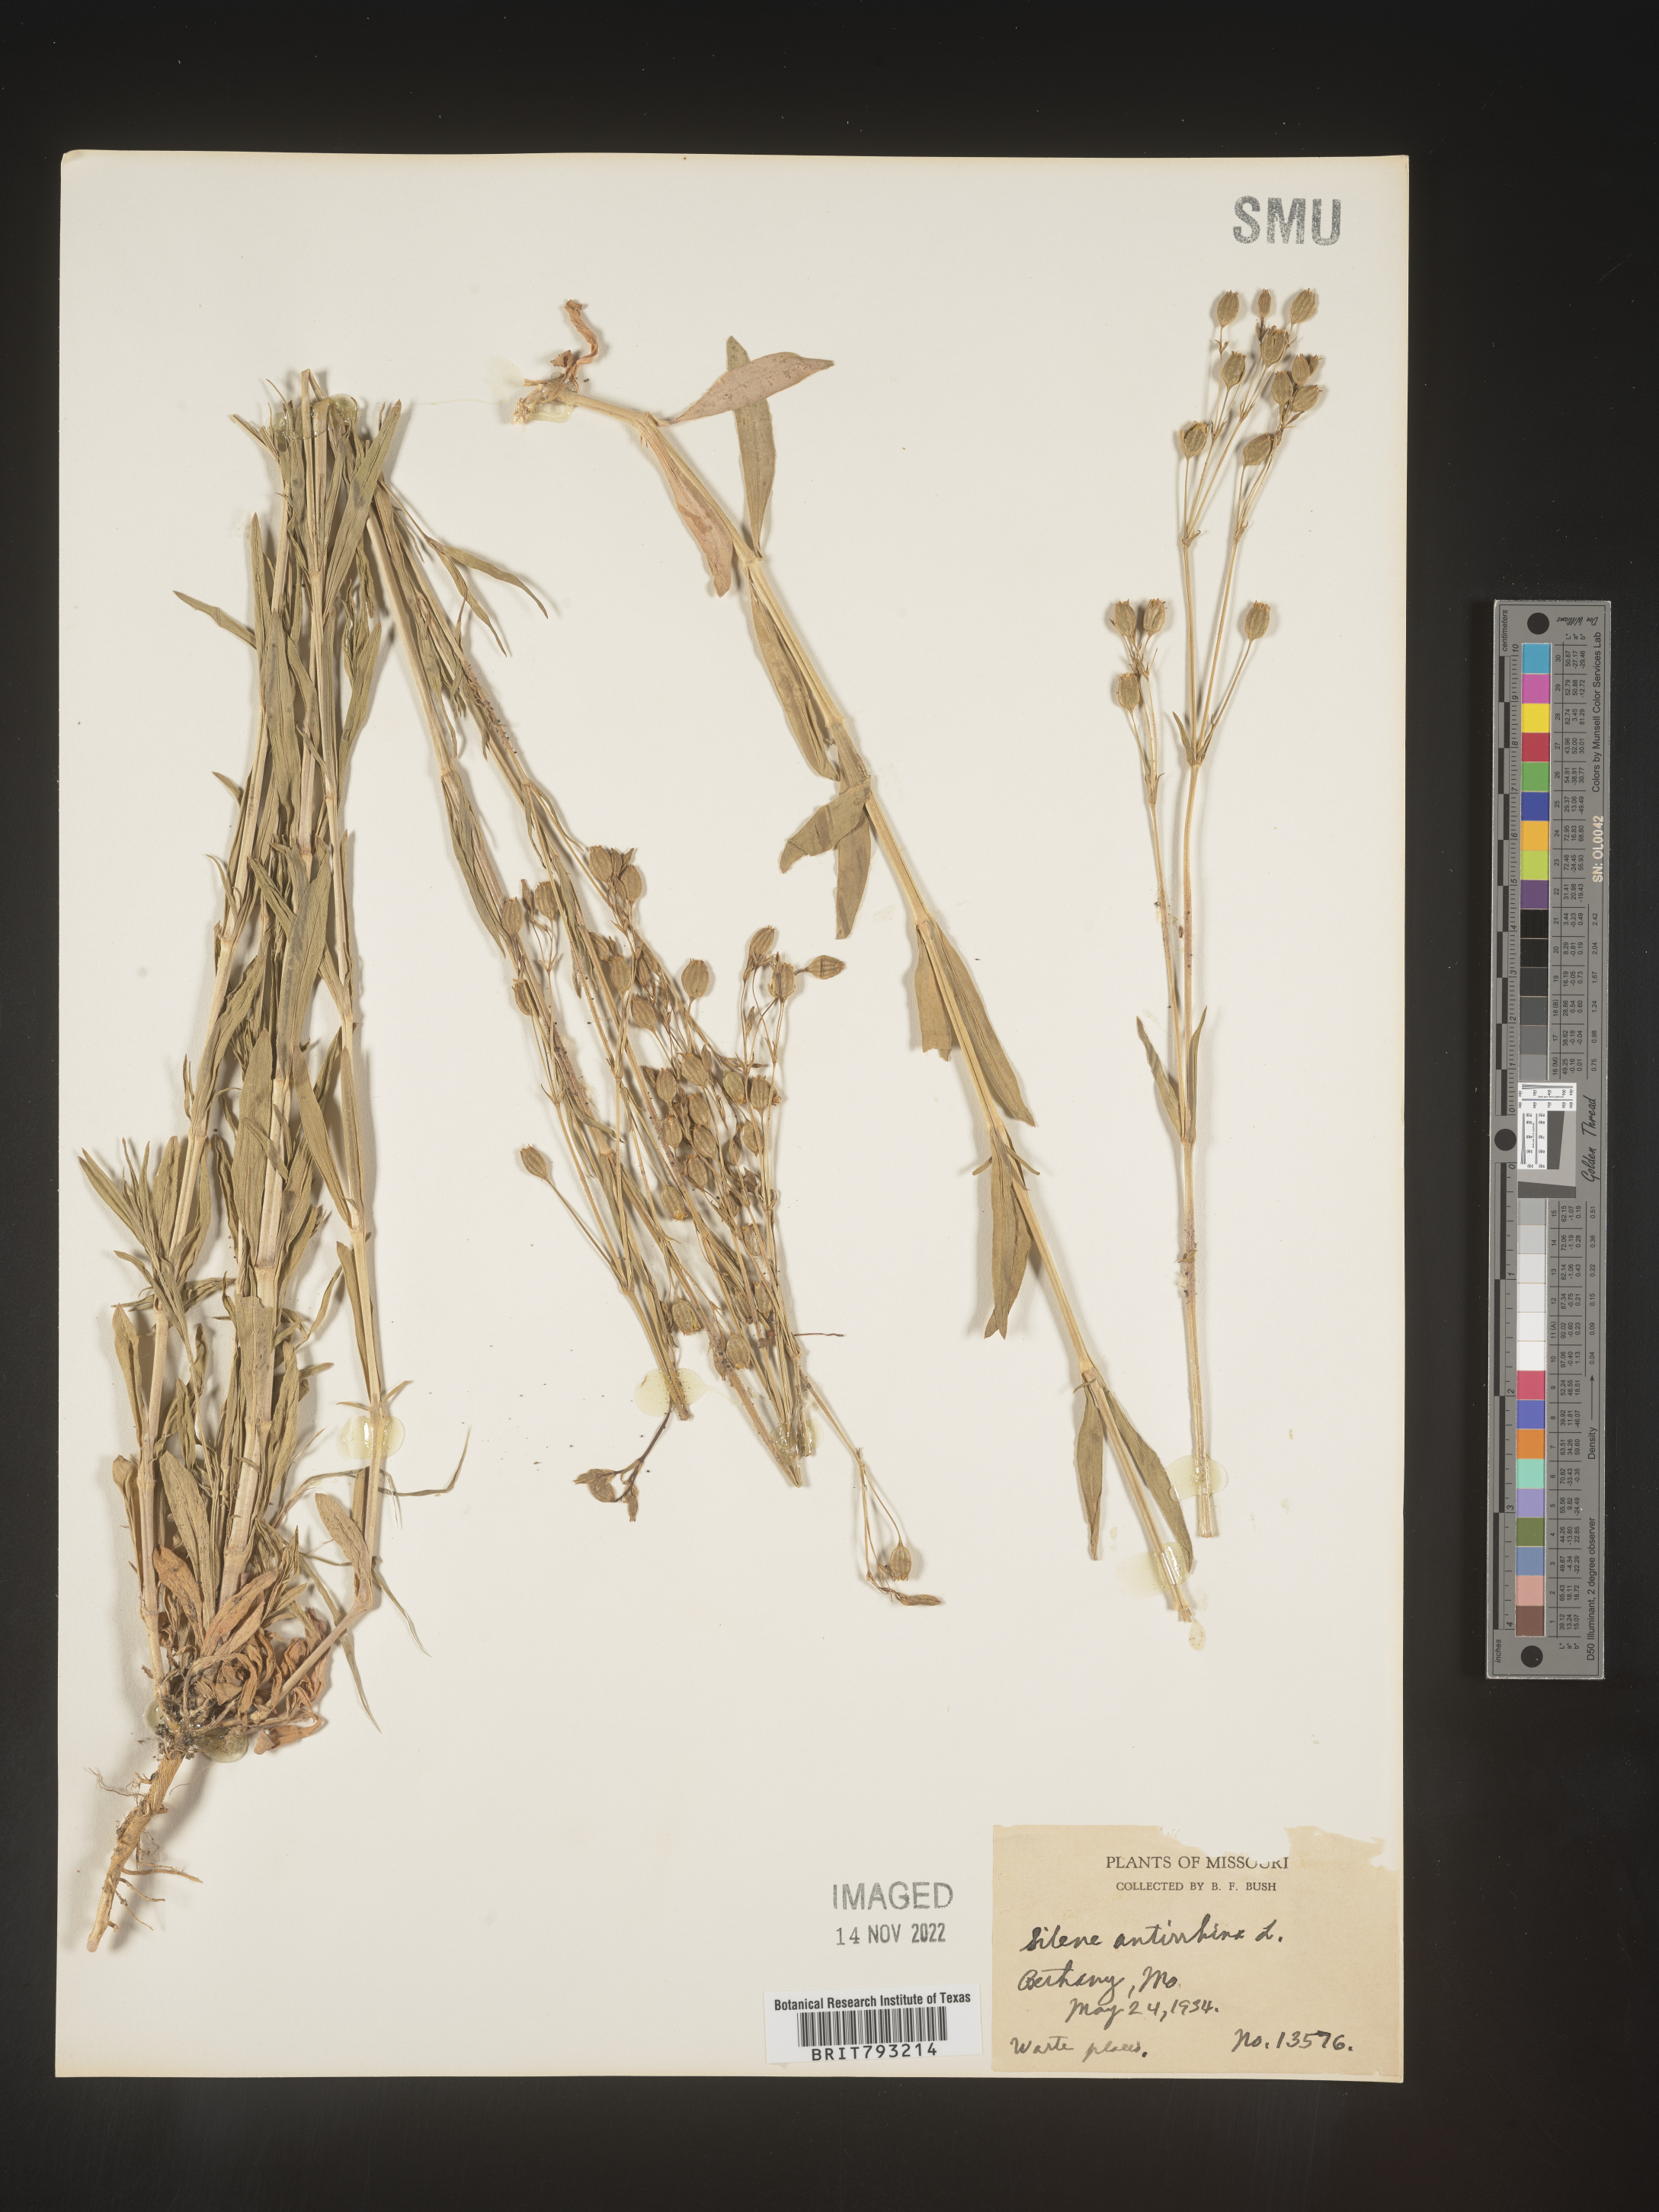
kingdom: Plantae
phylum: Tracheophyta
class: Magnoliopsida
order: Caryophyllales
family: Caryophyllaceae
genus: Silene
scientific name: Silene antirrhina
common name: Sleepy catchfly
